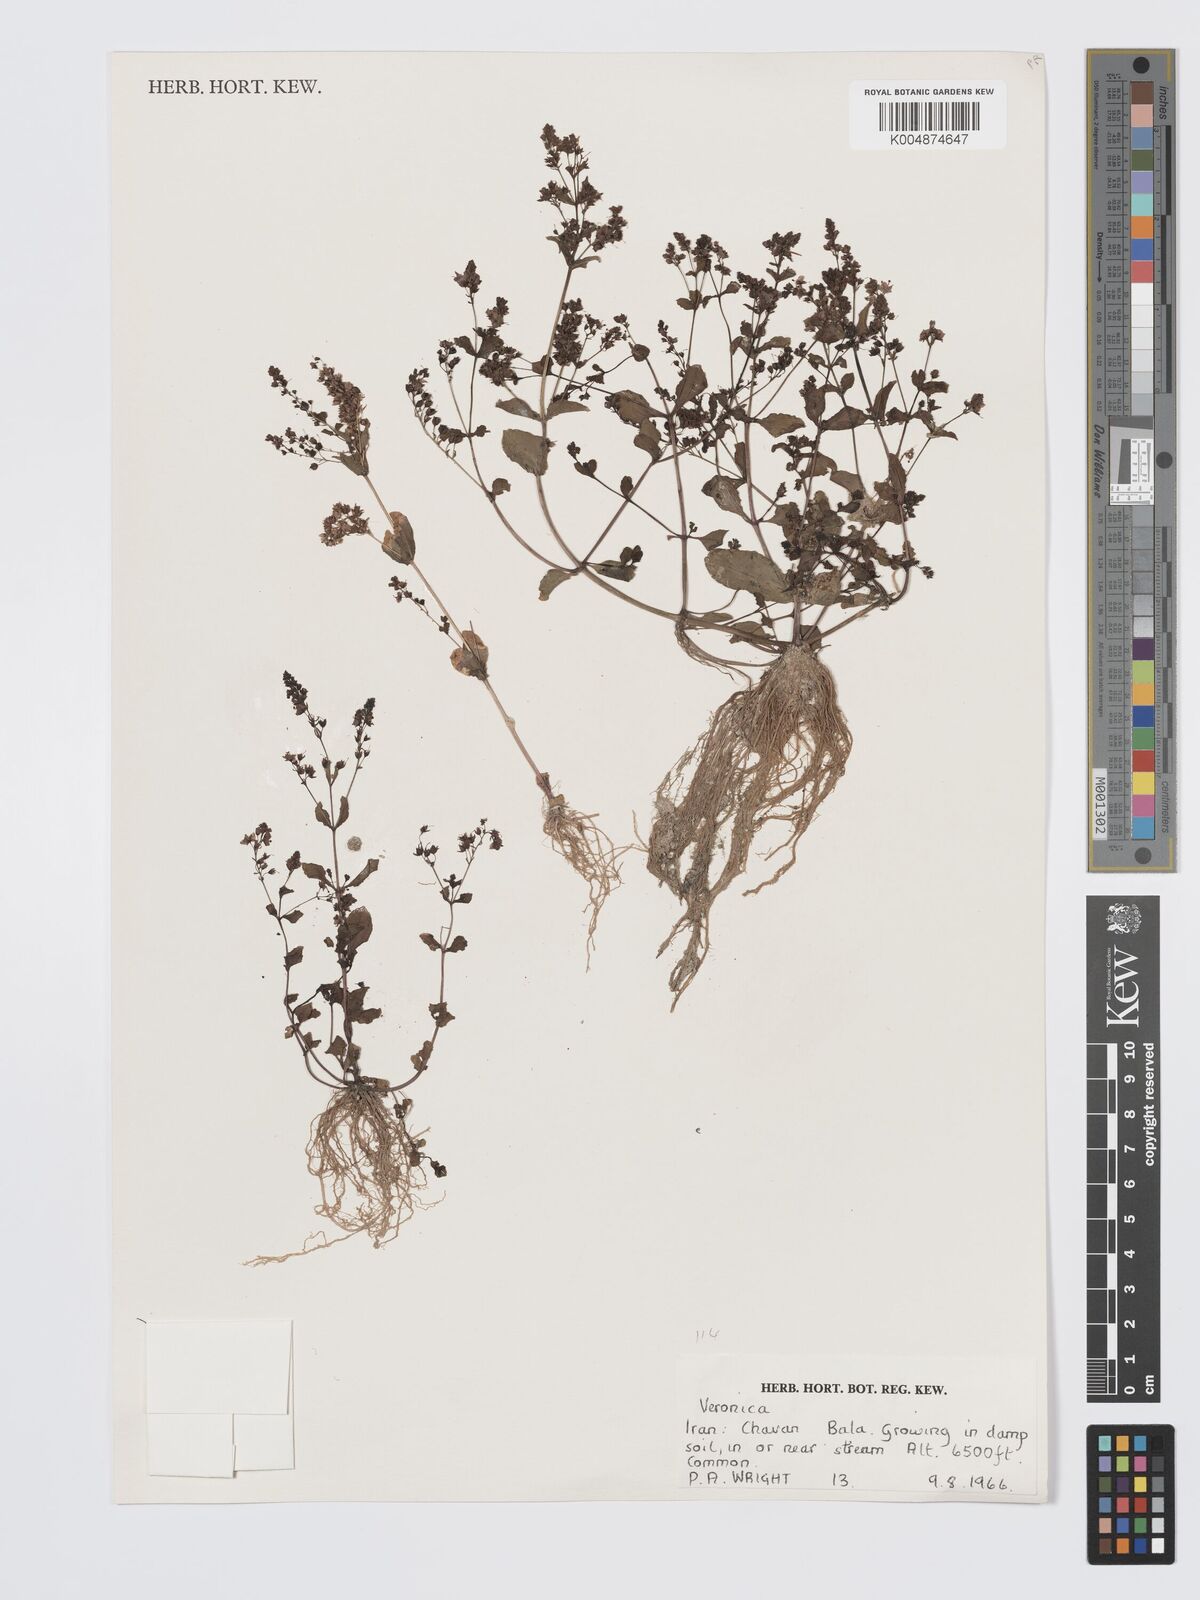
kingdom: Plantae
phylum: Tracheophyta
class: Magnoliopsida
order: Lamiales
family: Plantaginaceae
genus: Veronica
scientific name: Veronica
